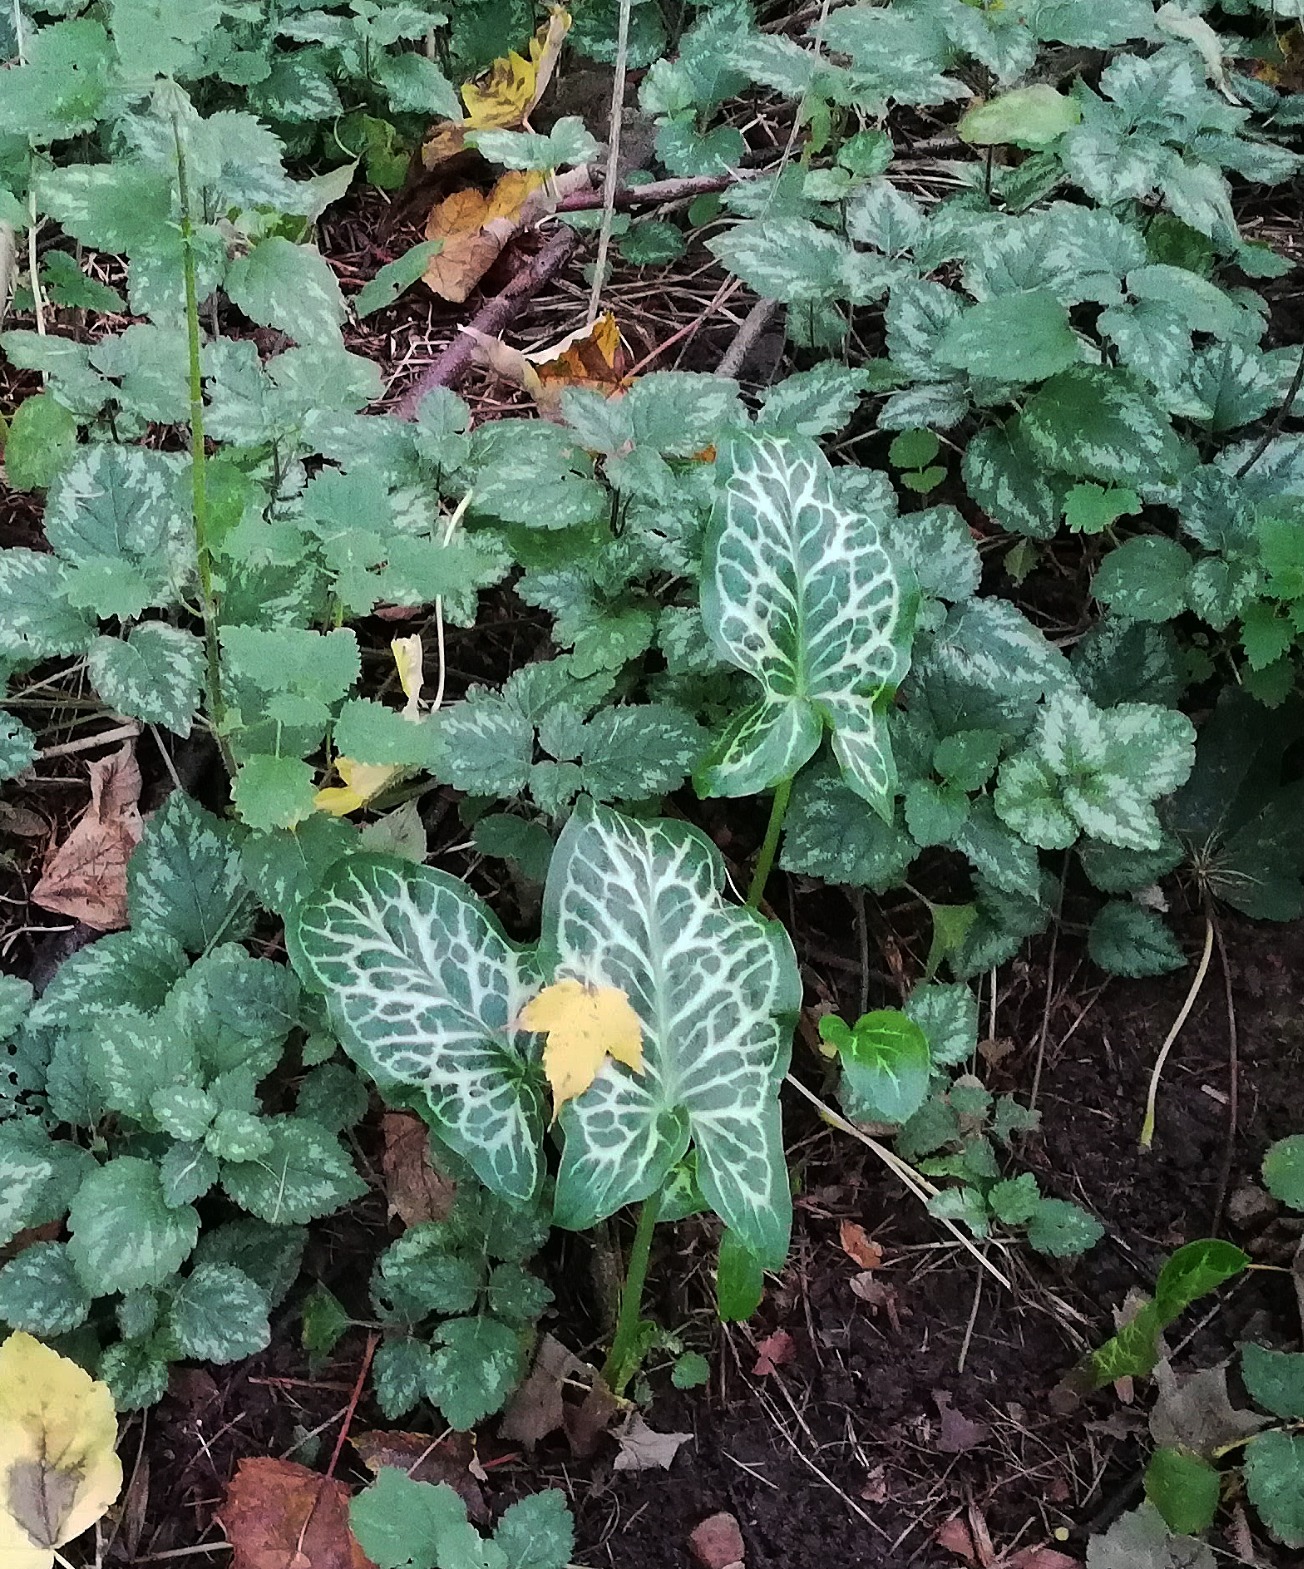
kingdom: Plantae
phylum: Tracheophyta
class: Liliopsida
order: Alismatales
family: Araceae
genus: Arum
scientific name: Arum italicum
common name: Italiensk arum
